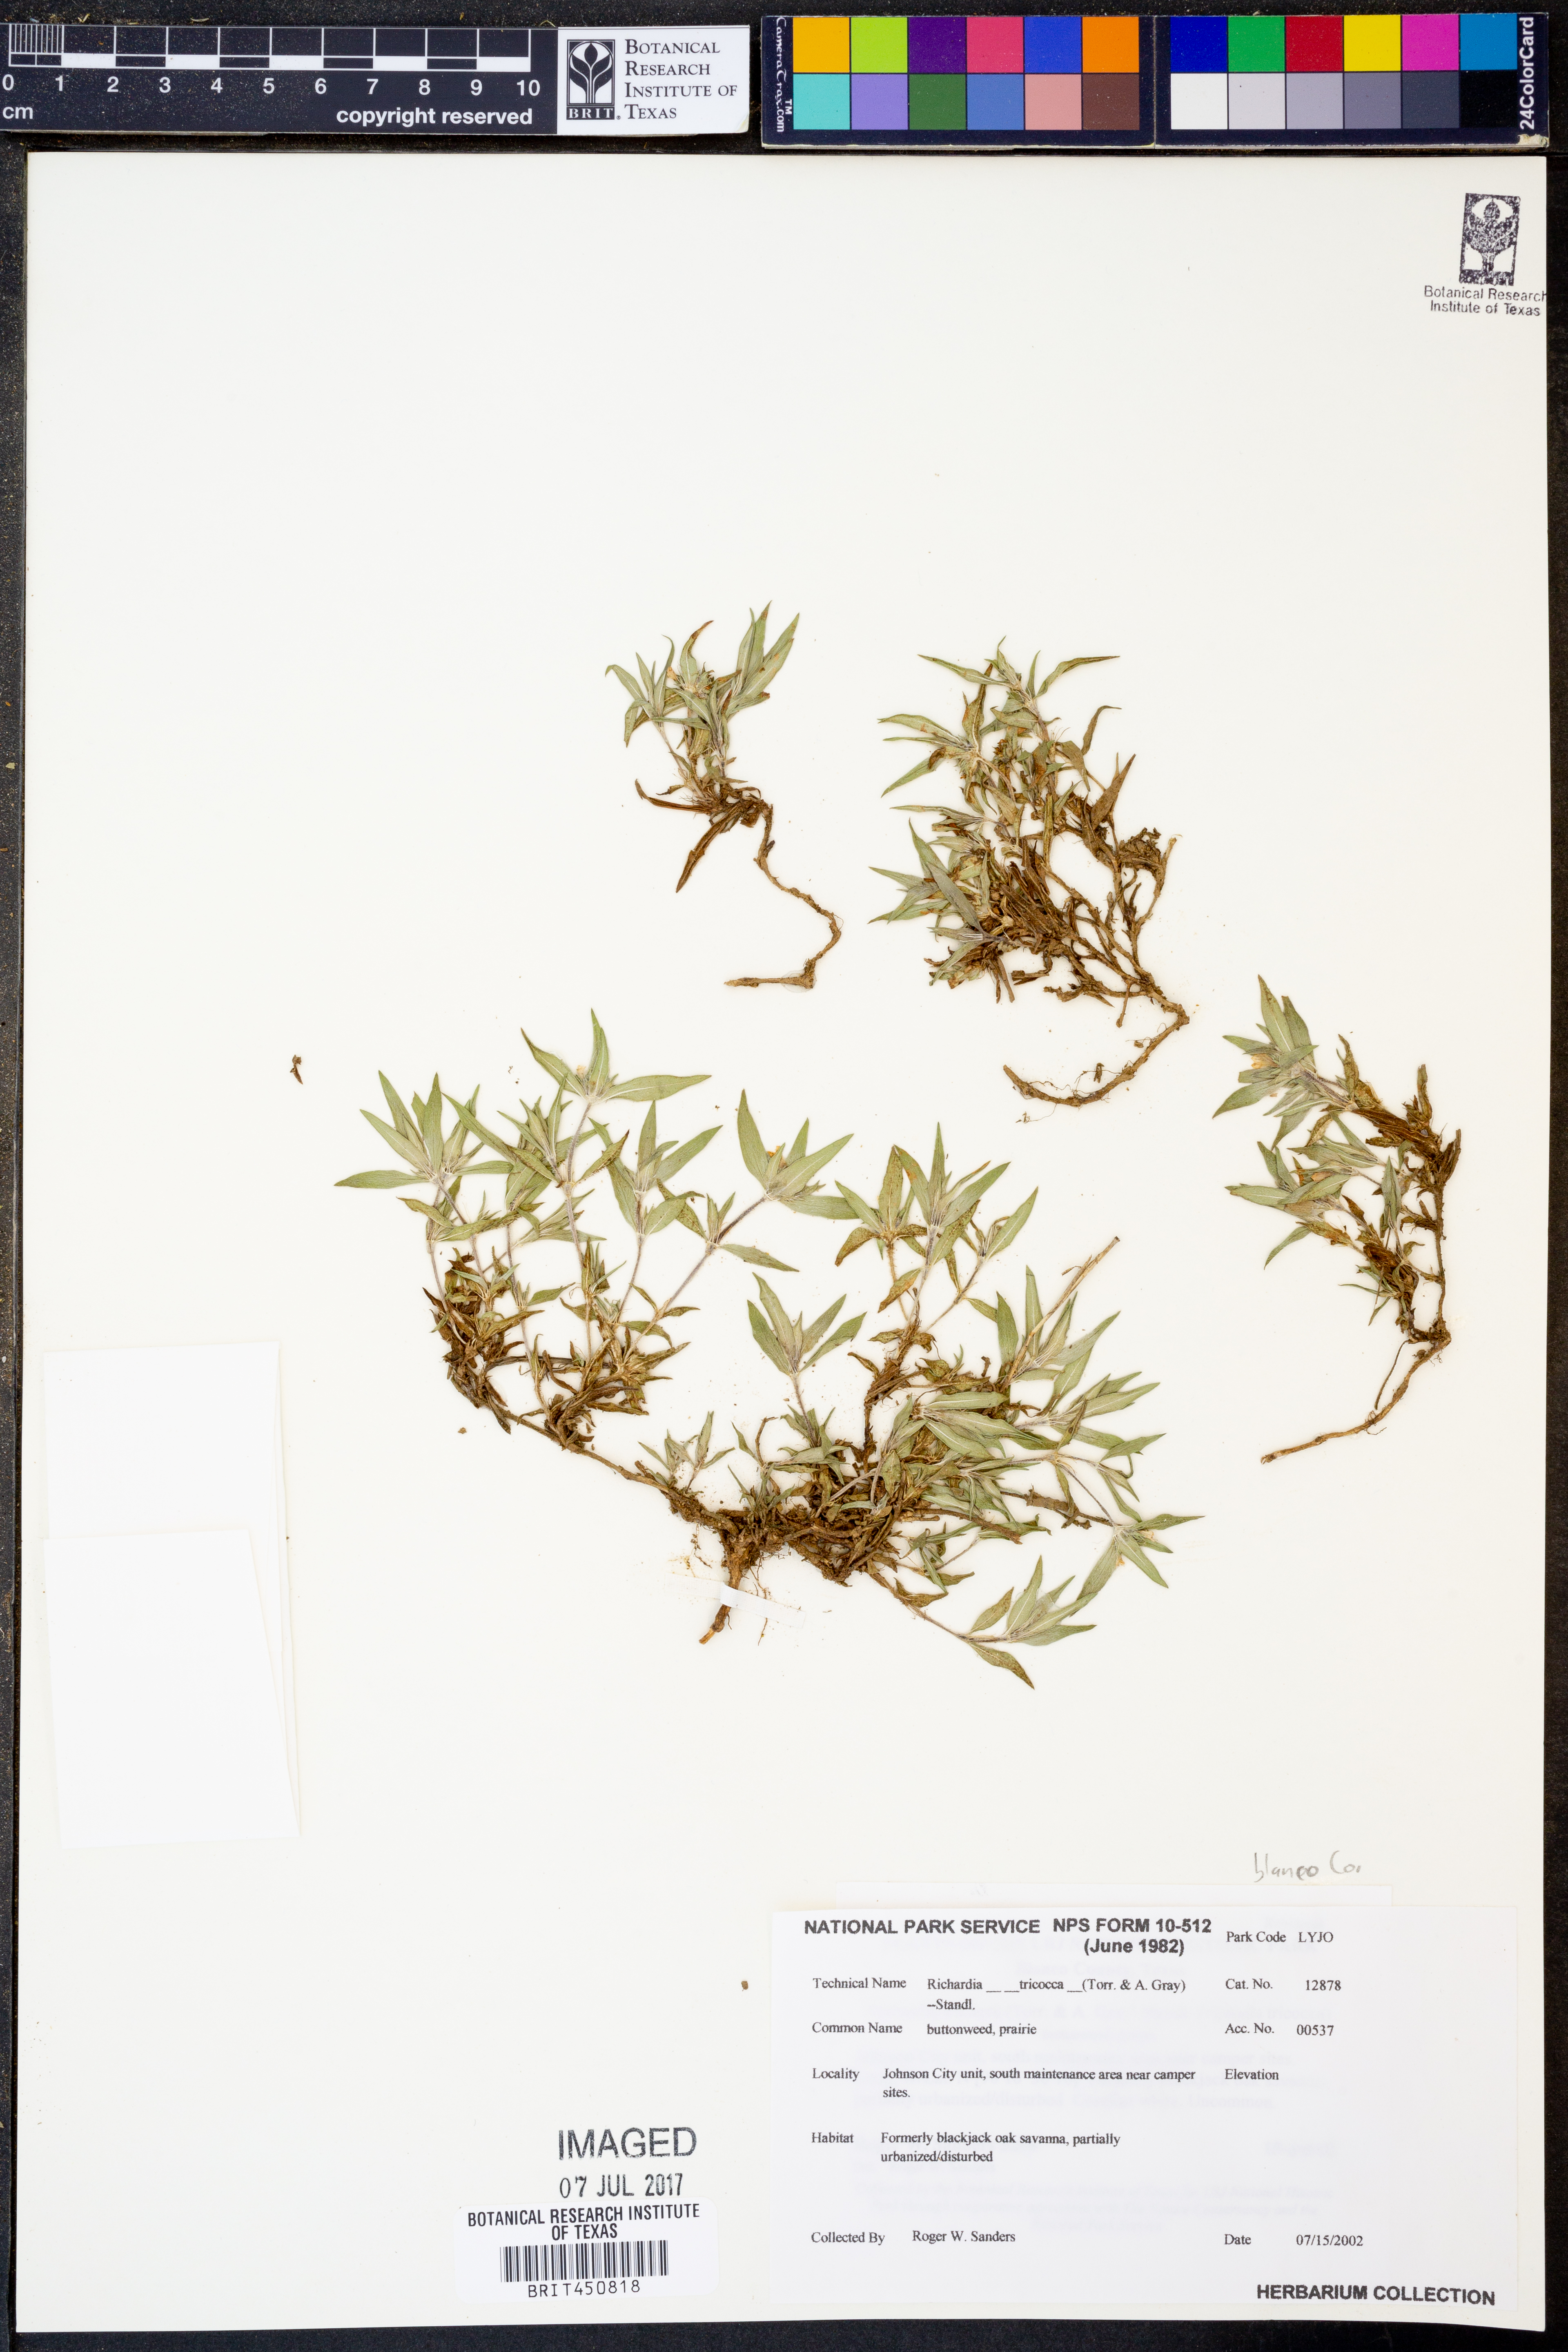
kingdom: Plantae
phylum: Tracheophyta
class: Magnoliopsida
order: Gentianales
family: Rubiaceae
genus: Richardia
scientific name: Richardia tricocca
